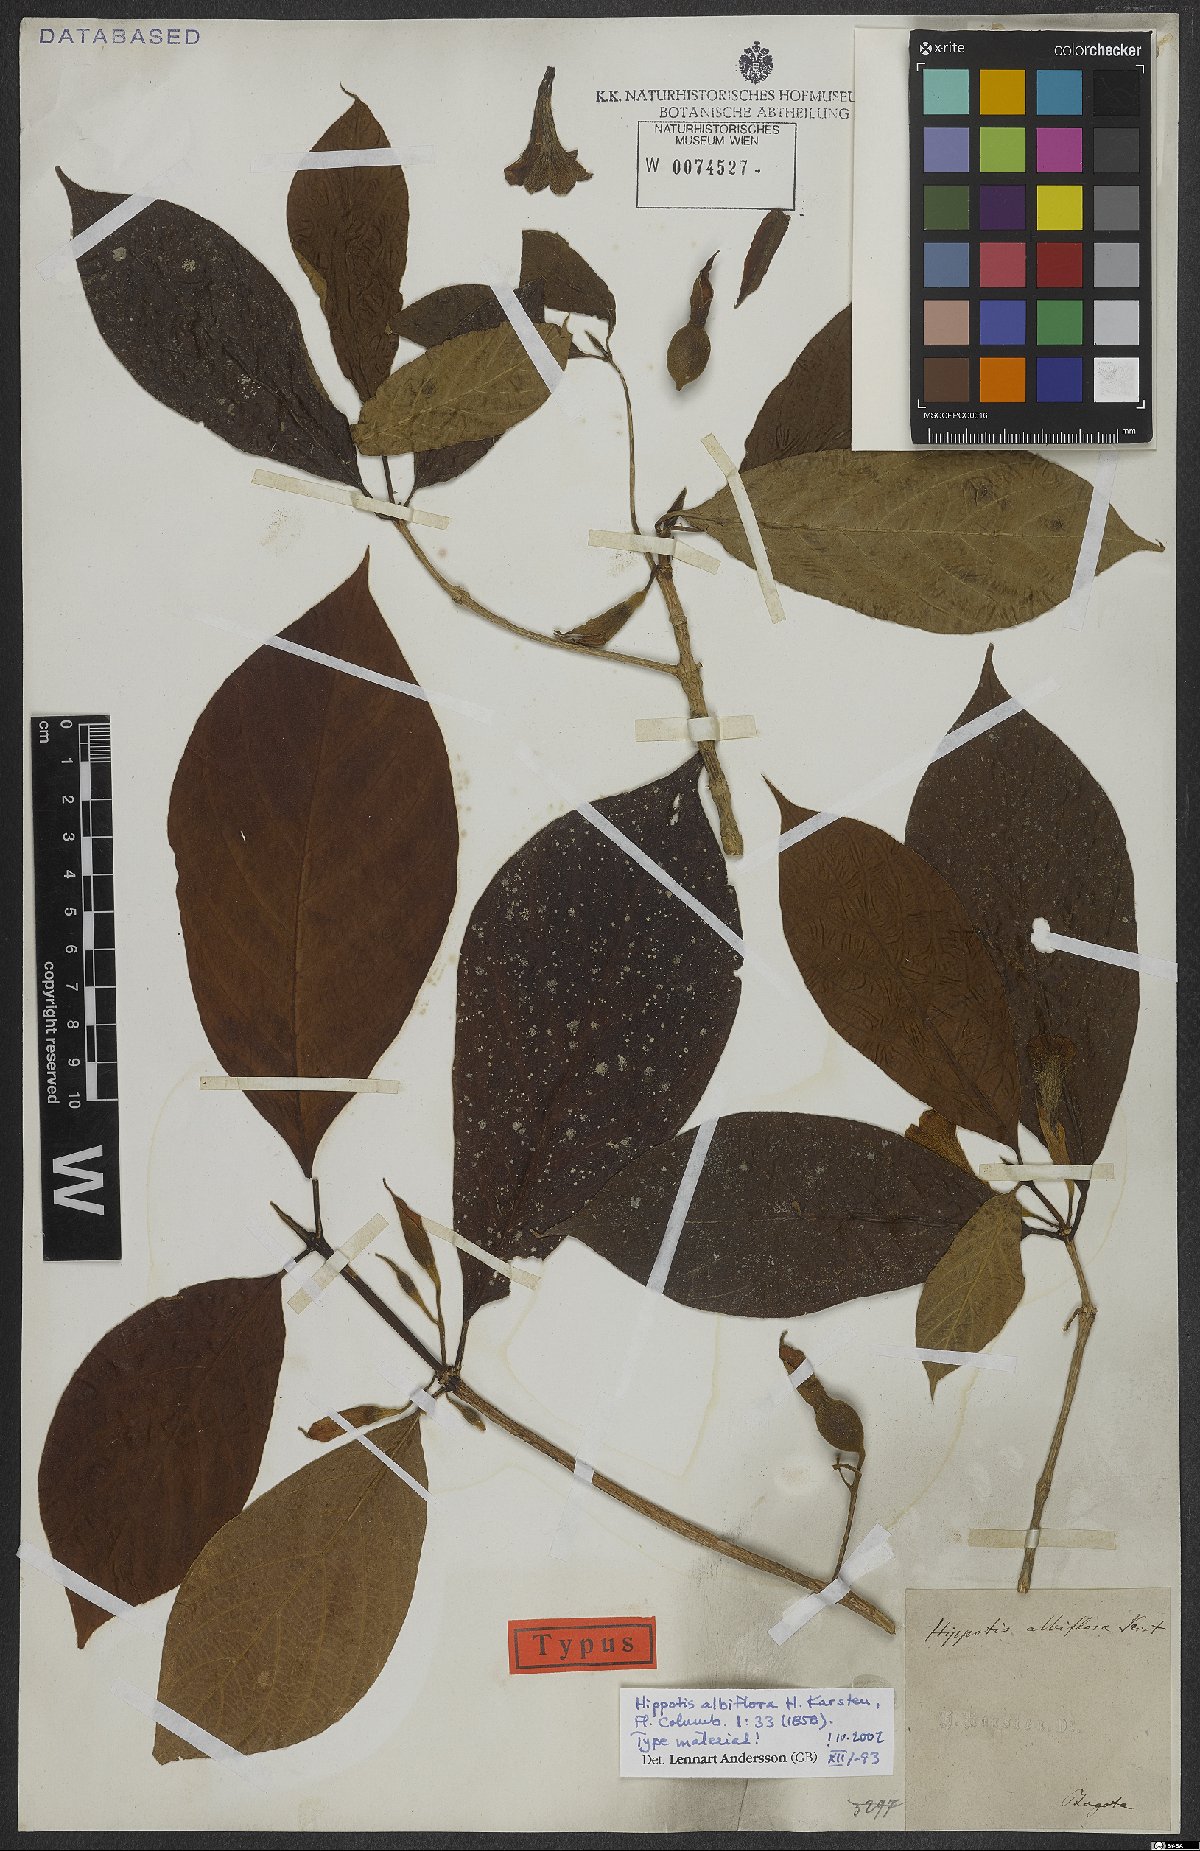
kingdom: Plantae
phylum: Tracheophyta
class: Magnoliopsida
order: Gentianales
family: Rubiaceae
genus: Hippotis
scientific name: Hippotis albiflora
